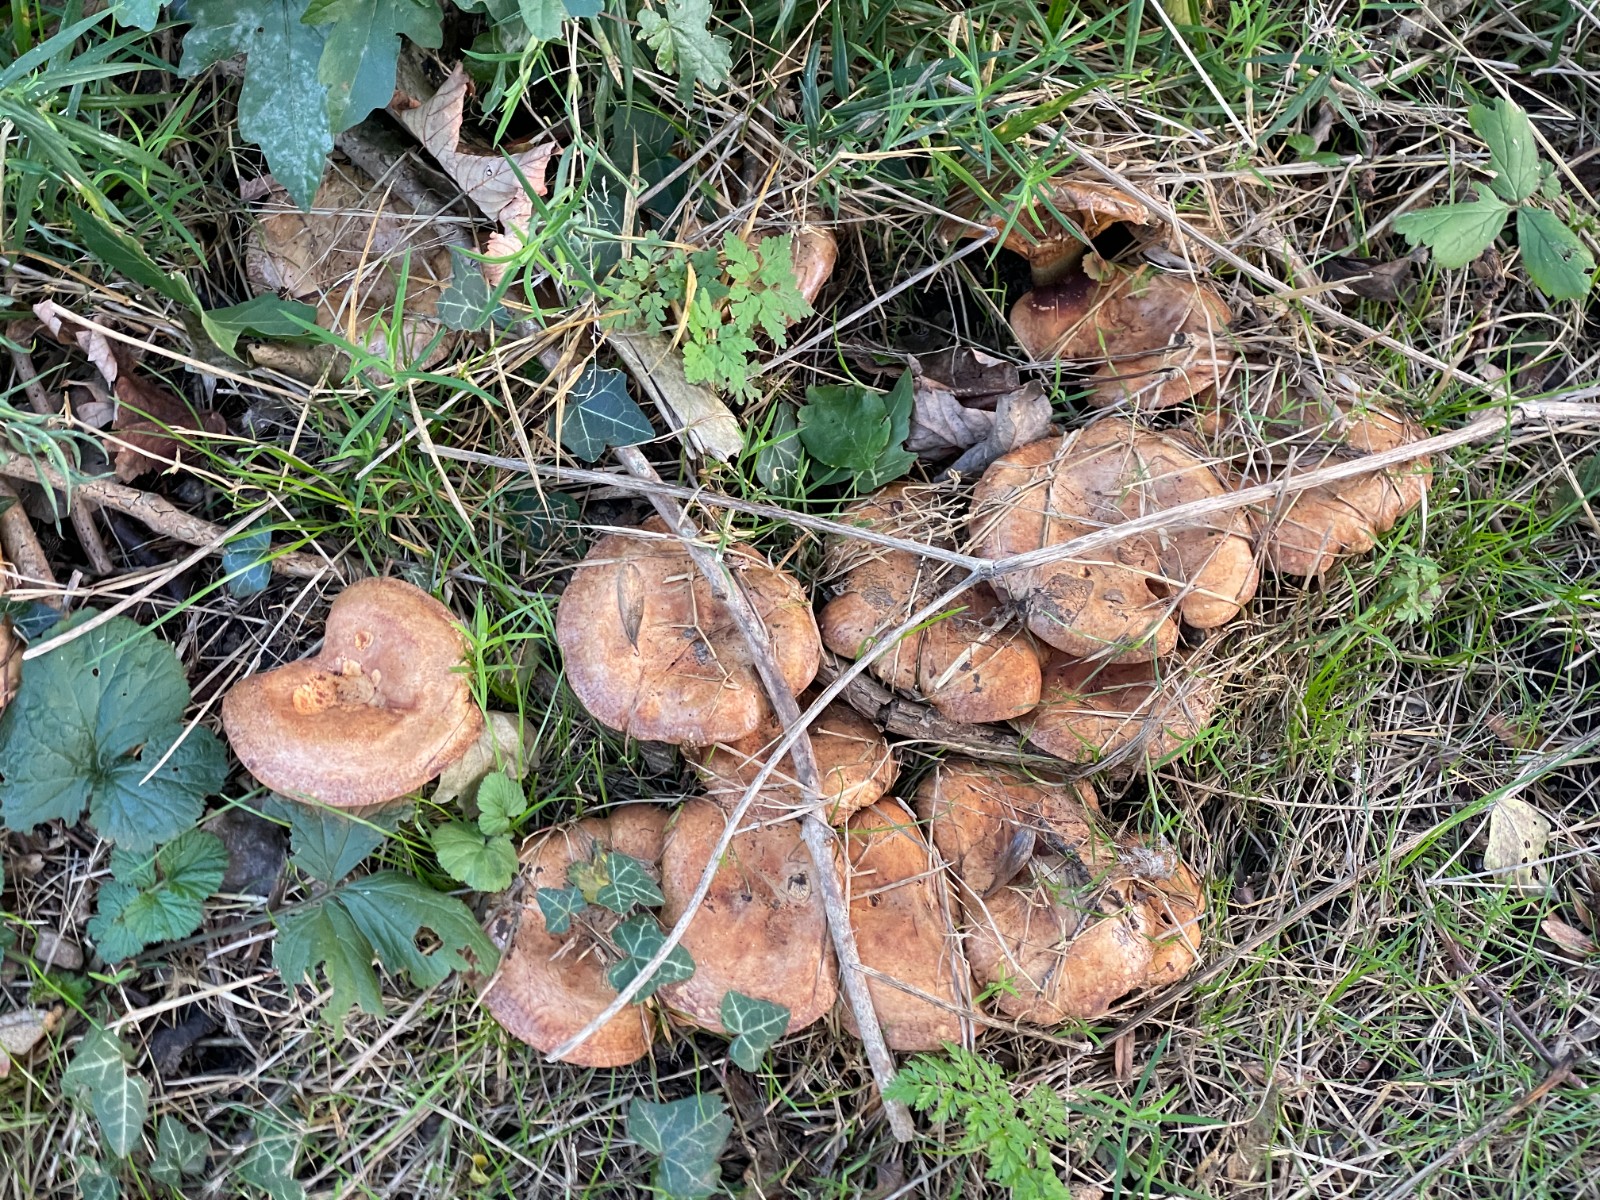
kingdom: Fungi
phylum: Basidiomycota
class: Agaricomycetes
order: Boletales
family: Paxillaceae
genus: Paxillus
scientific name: Paxillus obscurisporus
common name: mahognisporet netbladhat
